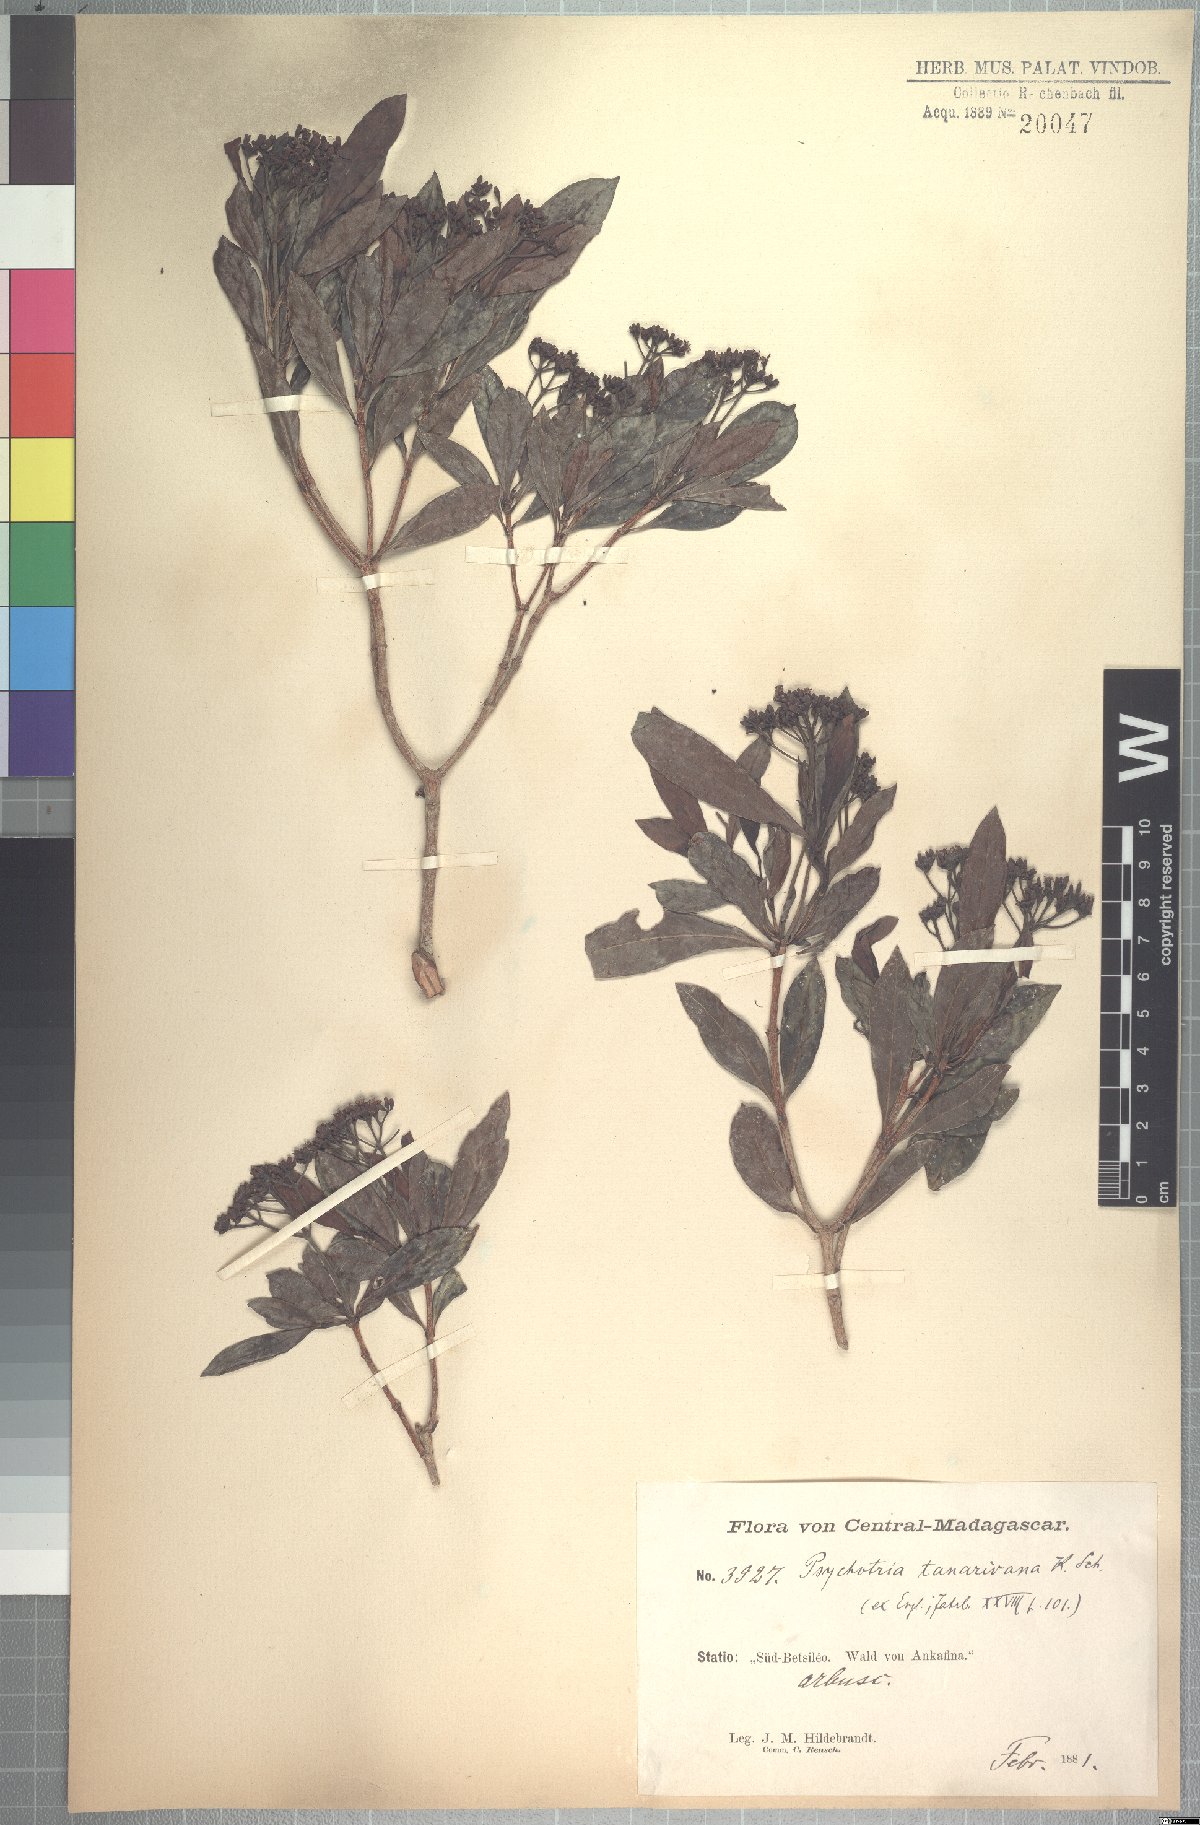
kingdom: Plantae
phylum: Tracheophyta
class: Magnoliopsida
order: Gentianales
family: Rubiaceae
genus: Psychotria
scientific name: Psychotria retiphlebia
